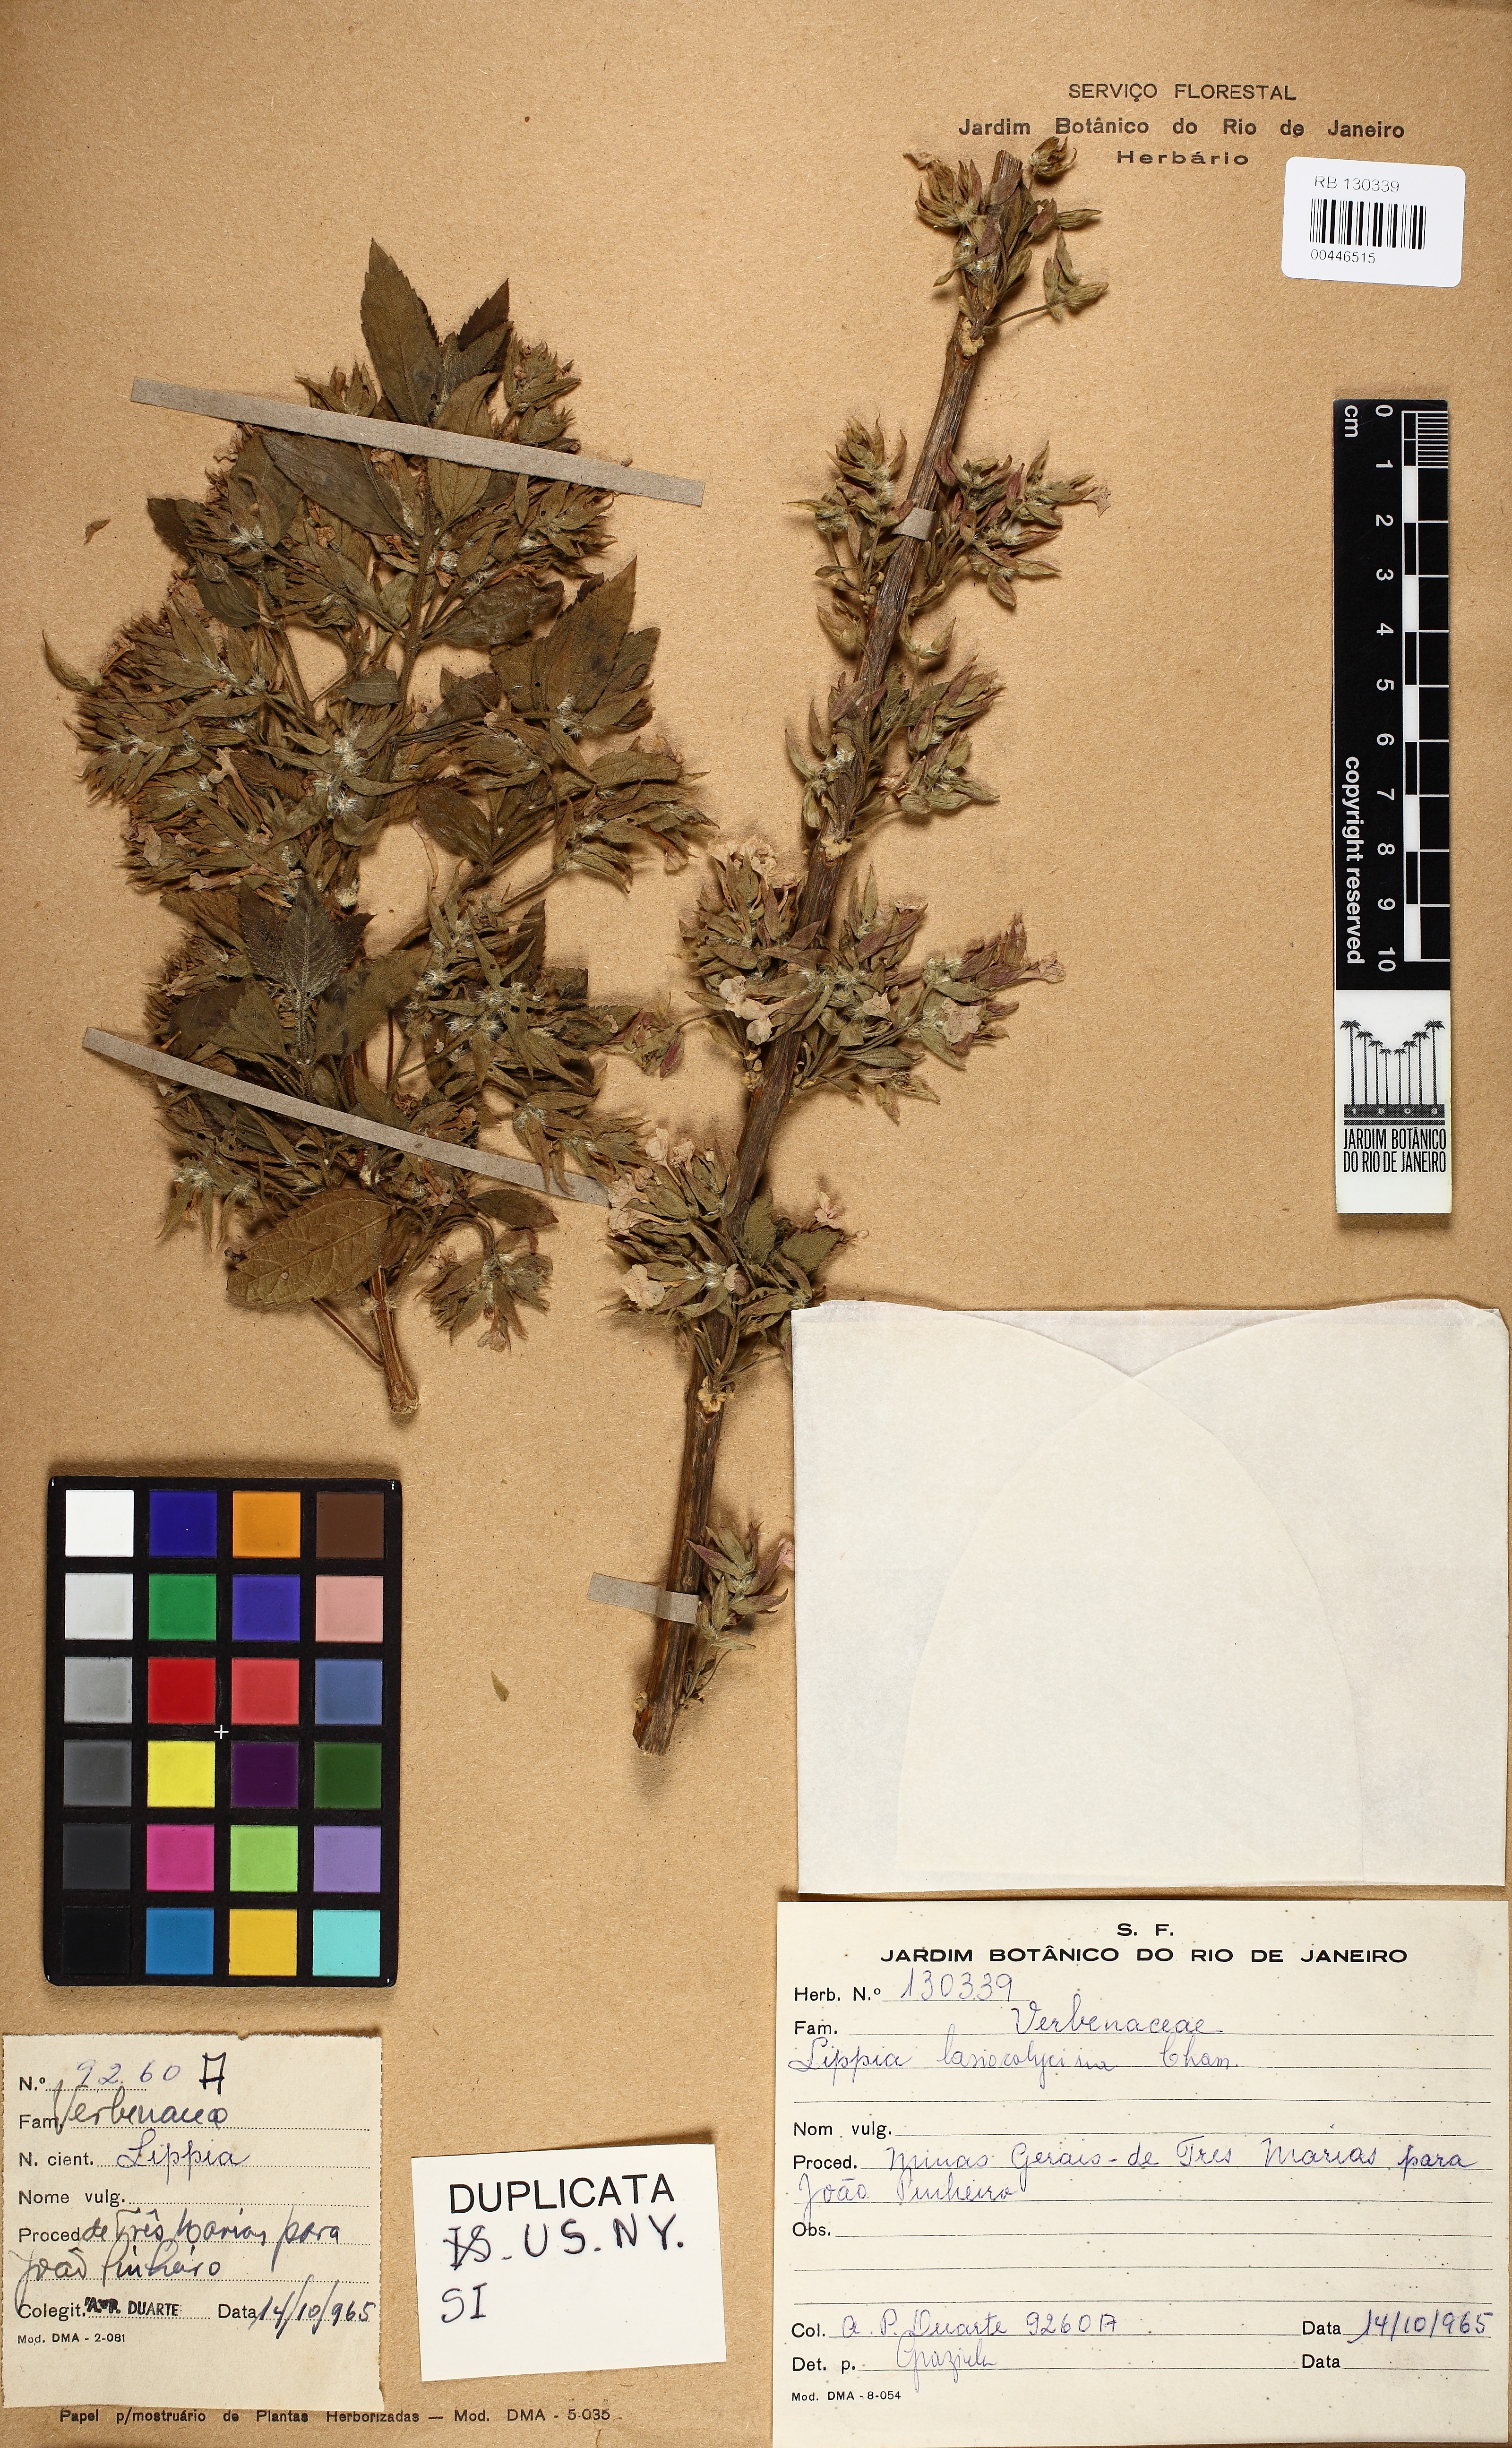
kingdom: Plantae
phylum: Tracheophyta
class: Magnoliopsida
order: Lamiales
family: Verbenaceae
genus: Lippia
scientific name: Lippia lasiocalycina
